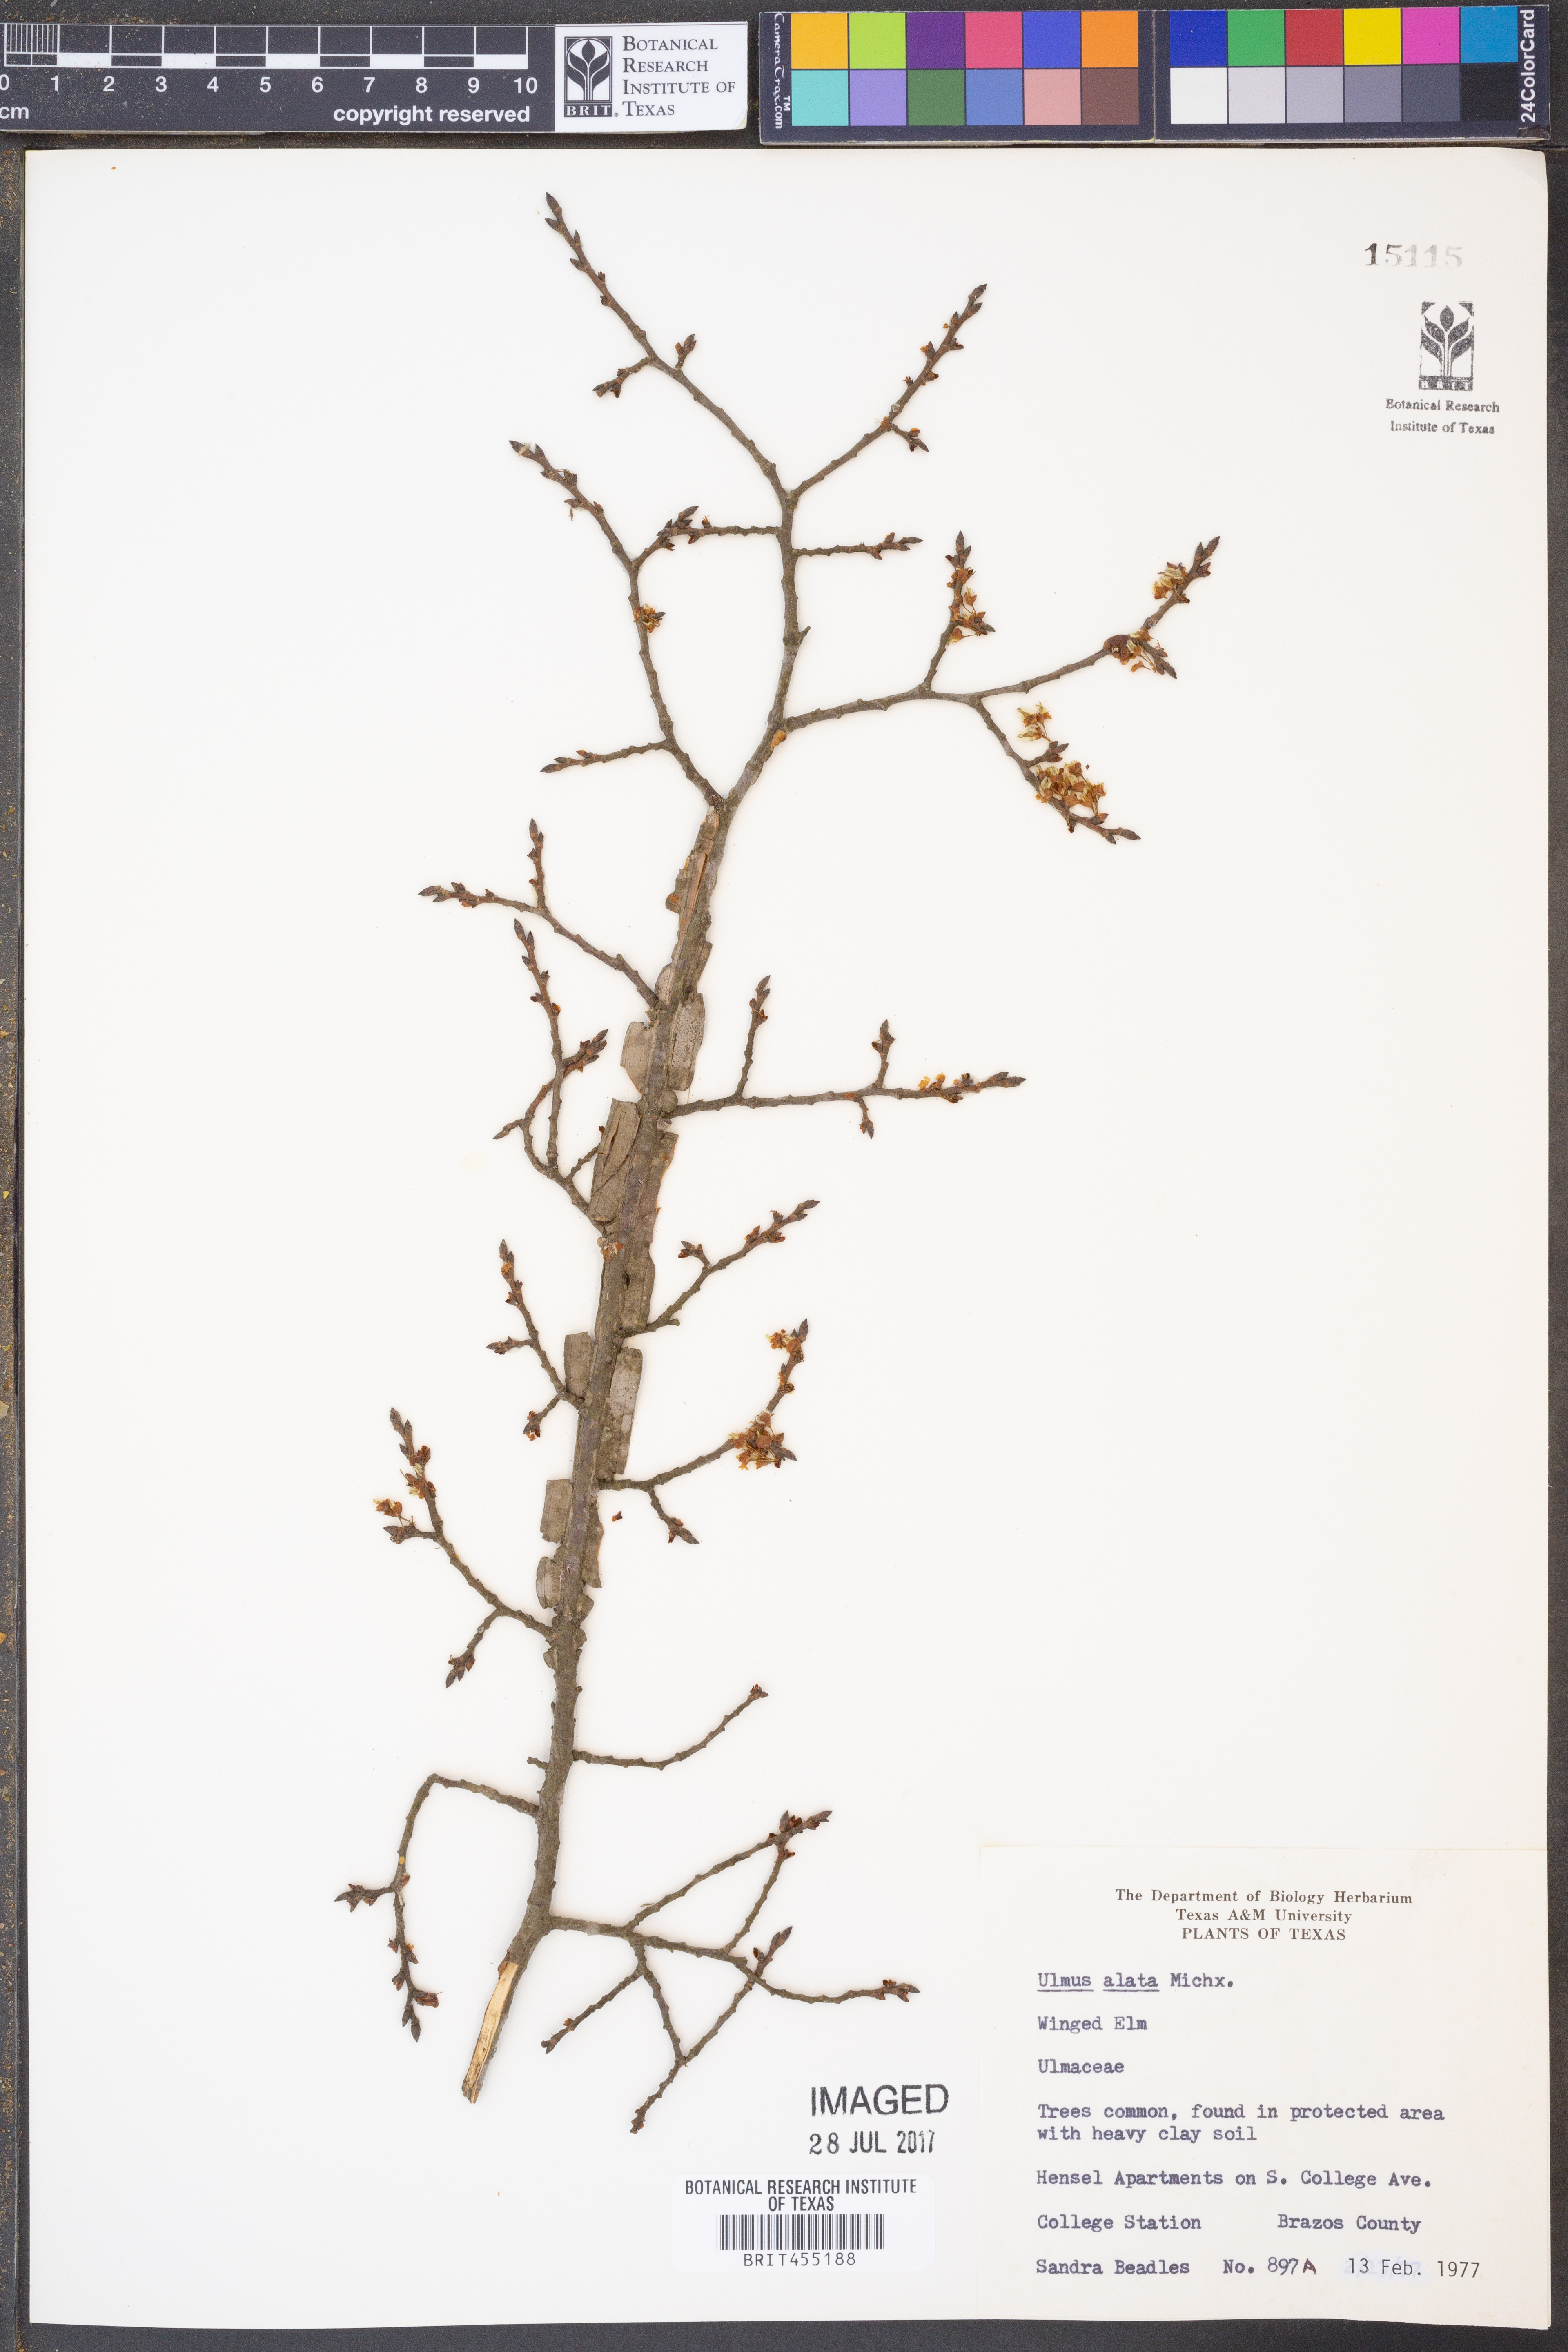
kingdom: Plantae
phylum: Tracheophyta
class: Magnoliopsida
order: Rosales
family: Ulmaceae
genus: Ulmus
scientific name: Ulmus alata
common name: Winged elm
